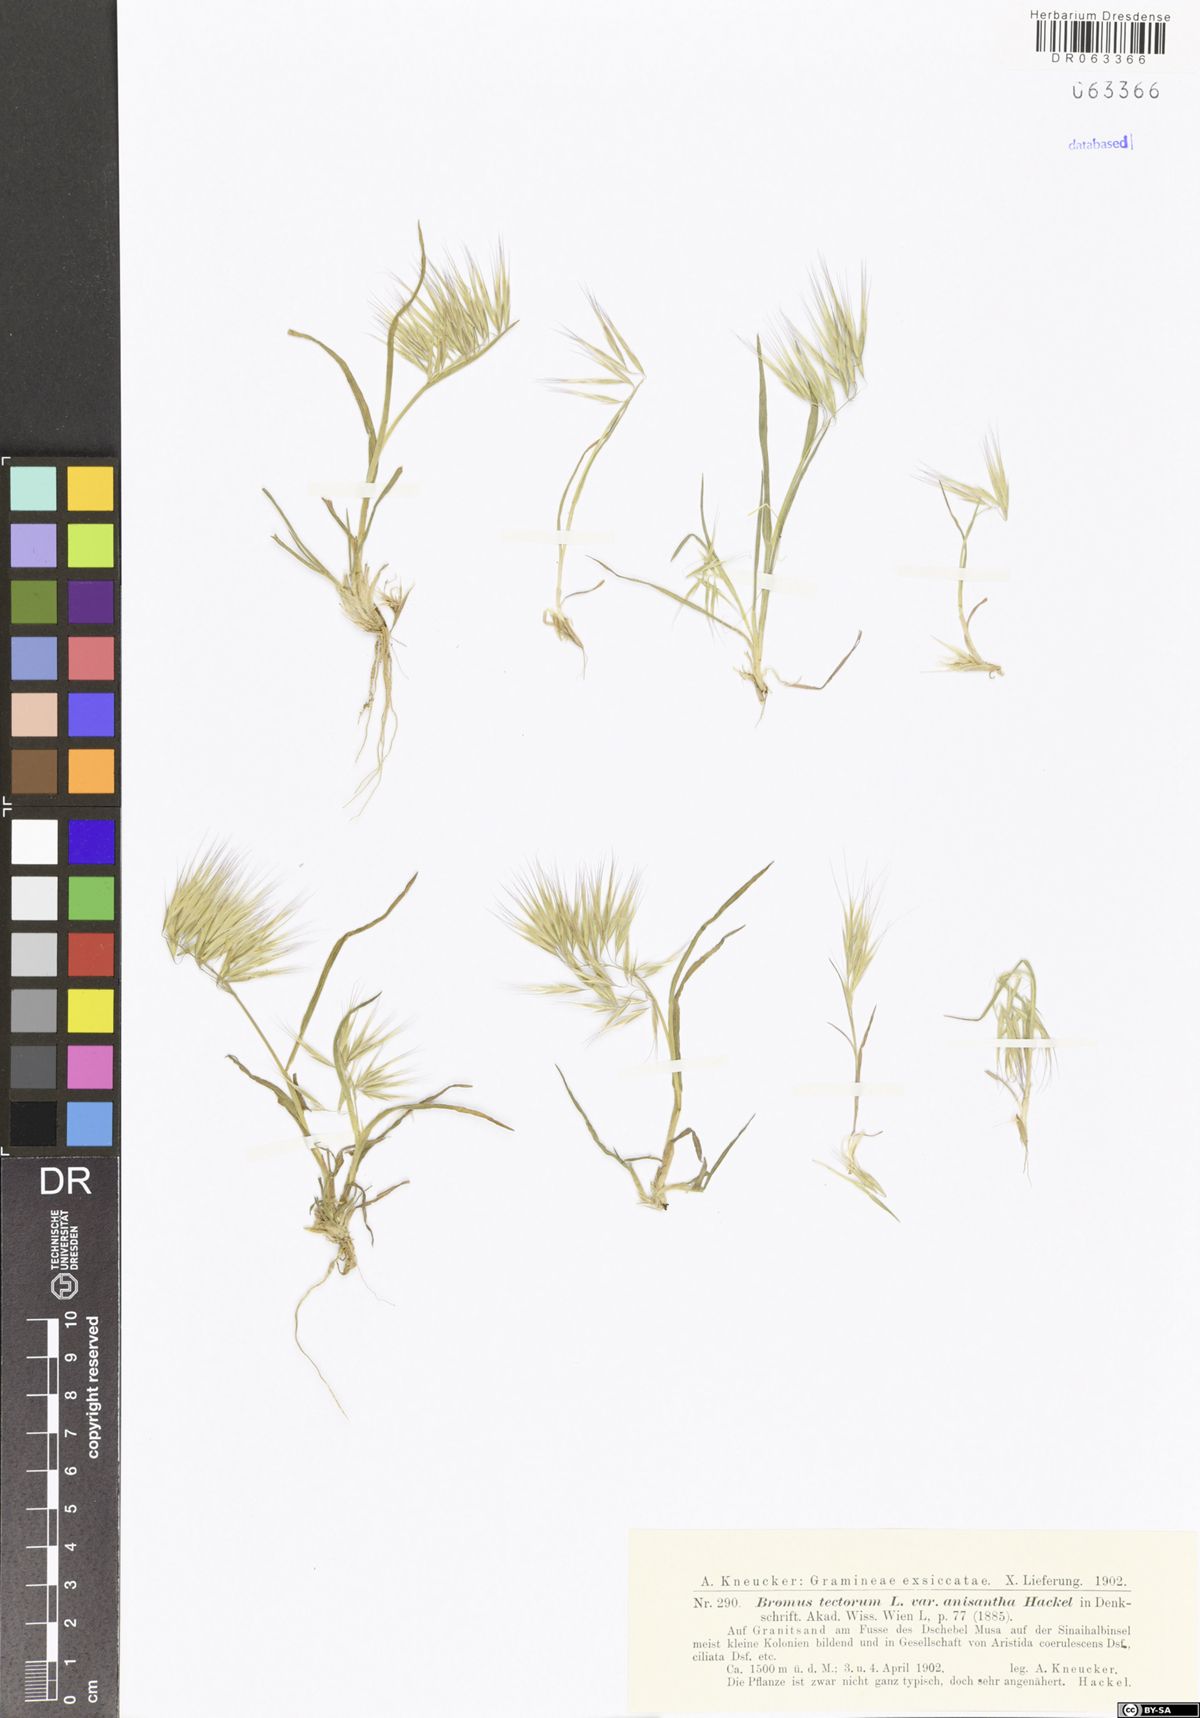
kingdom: Plantae
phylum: Tracheophyta
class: Liliopsida
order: Poales
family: Poaceae
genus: Bromus
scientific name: Bromus tectorum
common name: Cheatgrass
